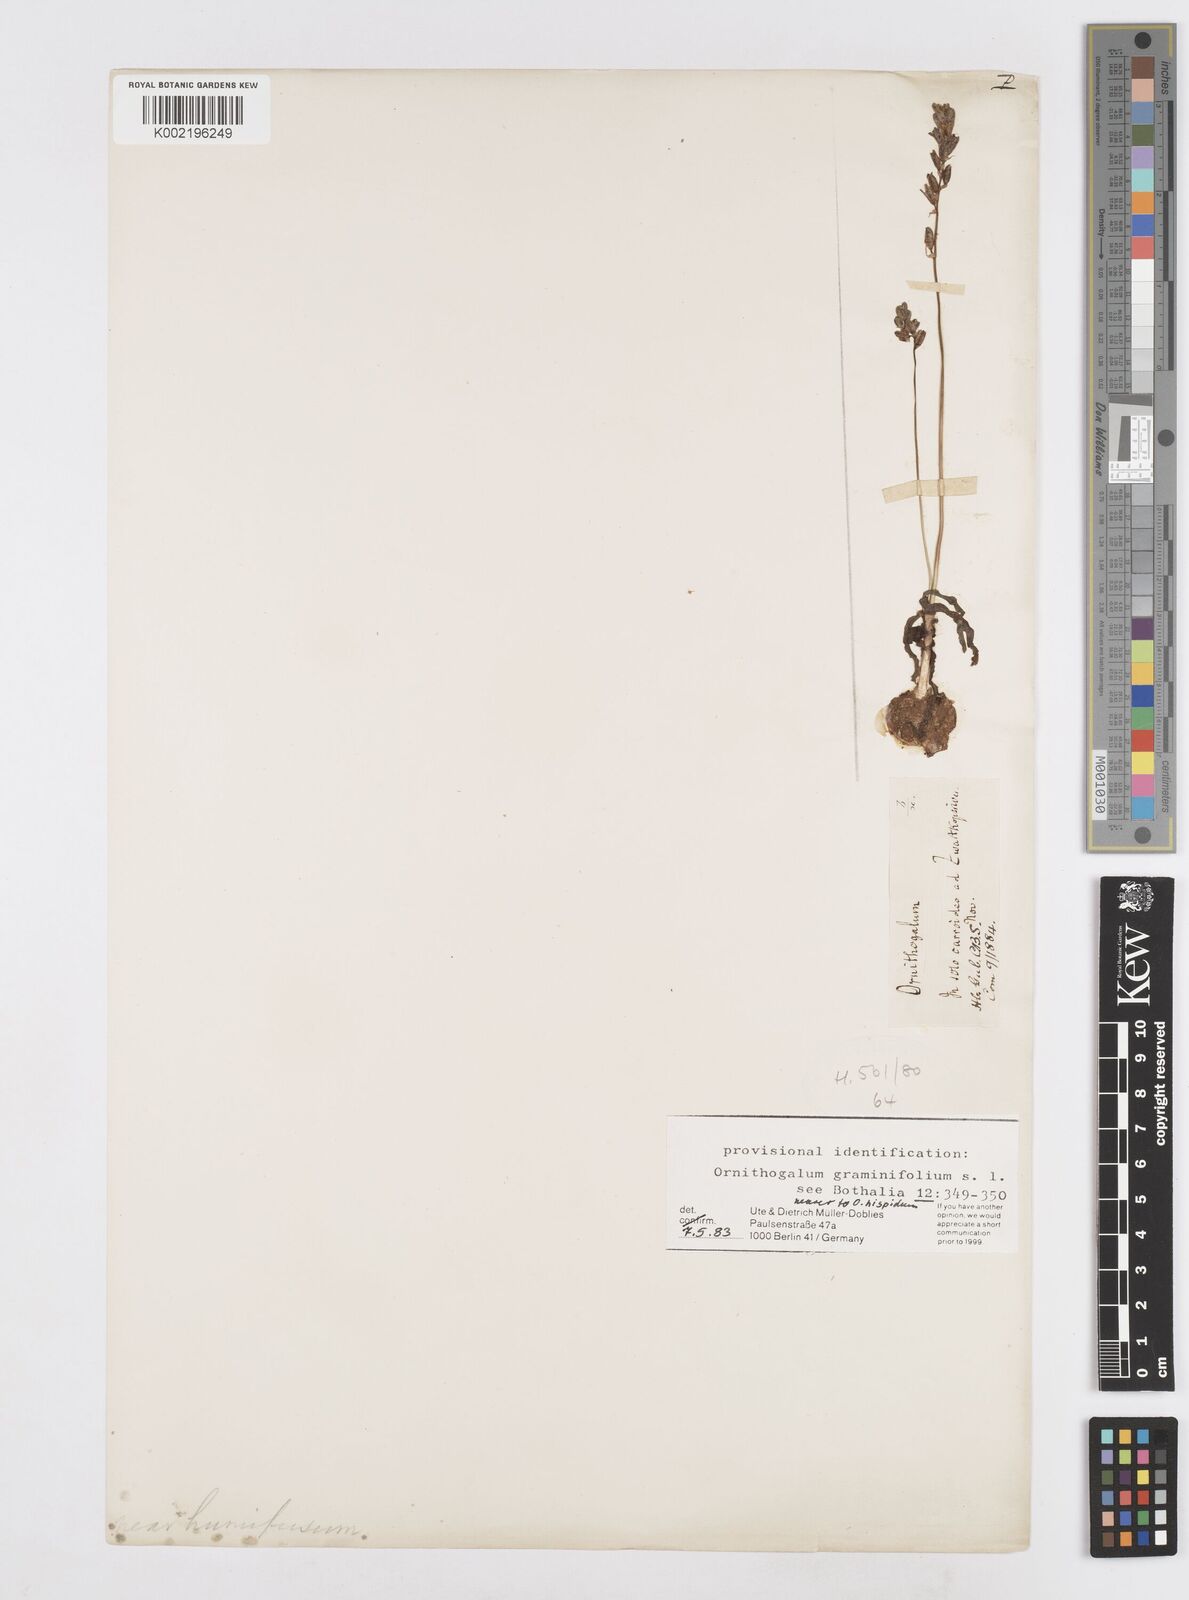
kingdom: Plantae
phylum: Tracheophyta
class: Liliopsida
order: Asparagales
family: Asparagaceae
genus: Ornithogalum
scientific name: Ornithogalum graminifolium
